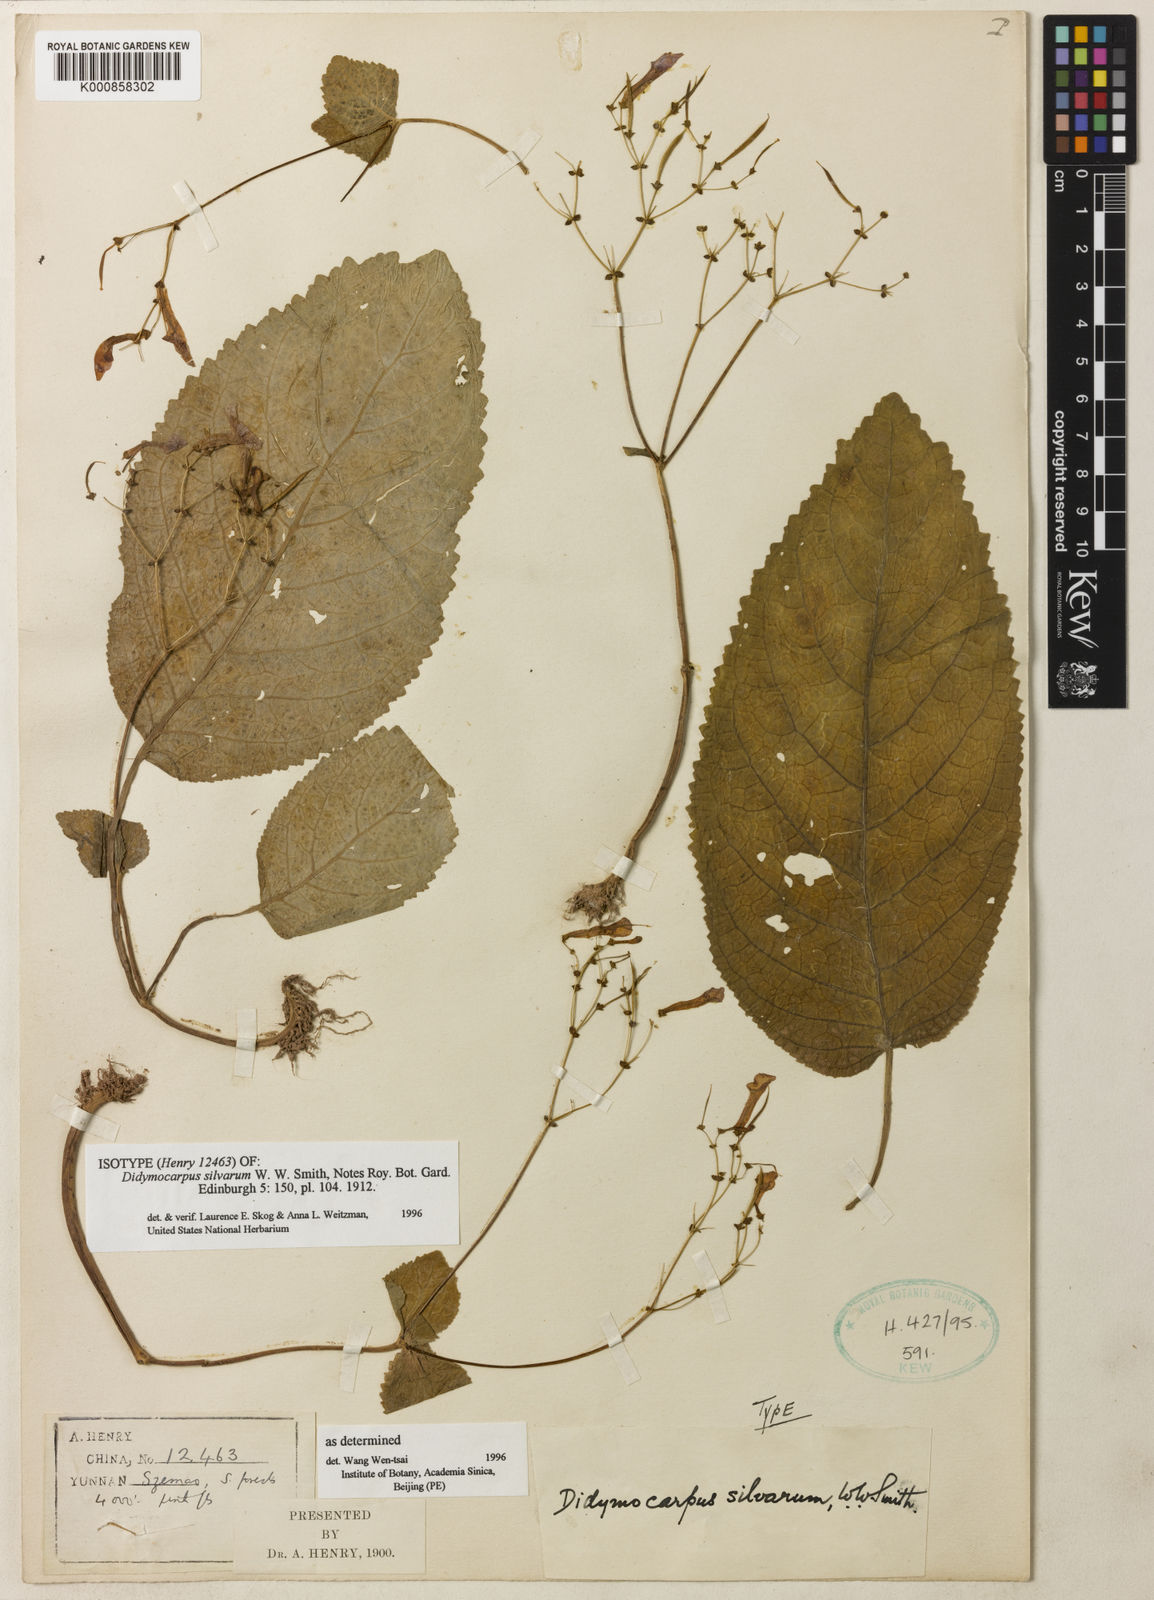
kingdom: Plantae
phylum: Tracheophyta
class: Magnoliopsida
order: Lamiales
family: Gesneriaceae
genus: Didymocarpus
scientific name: Didymocarpus silvarum
